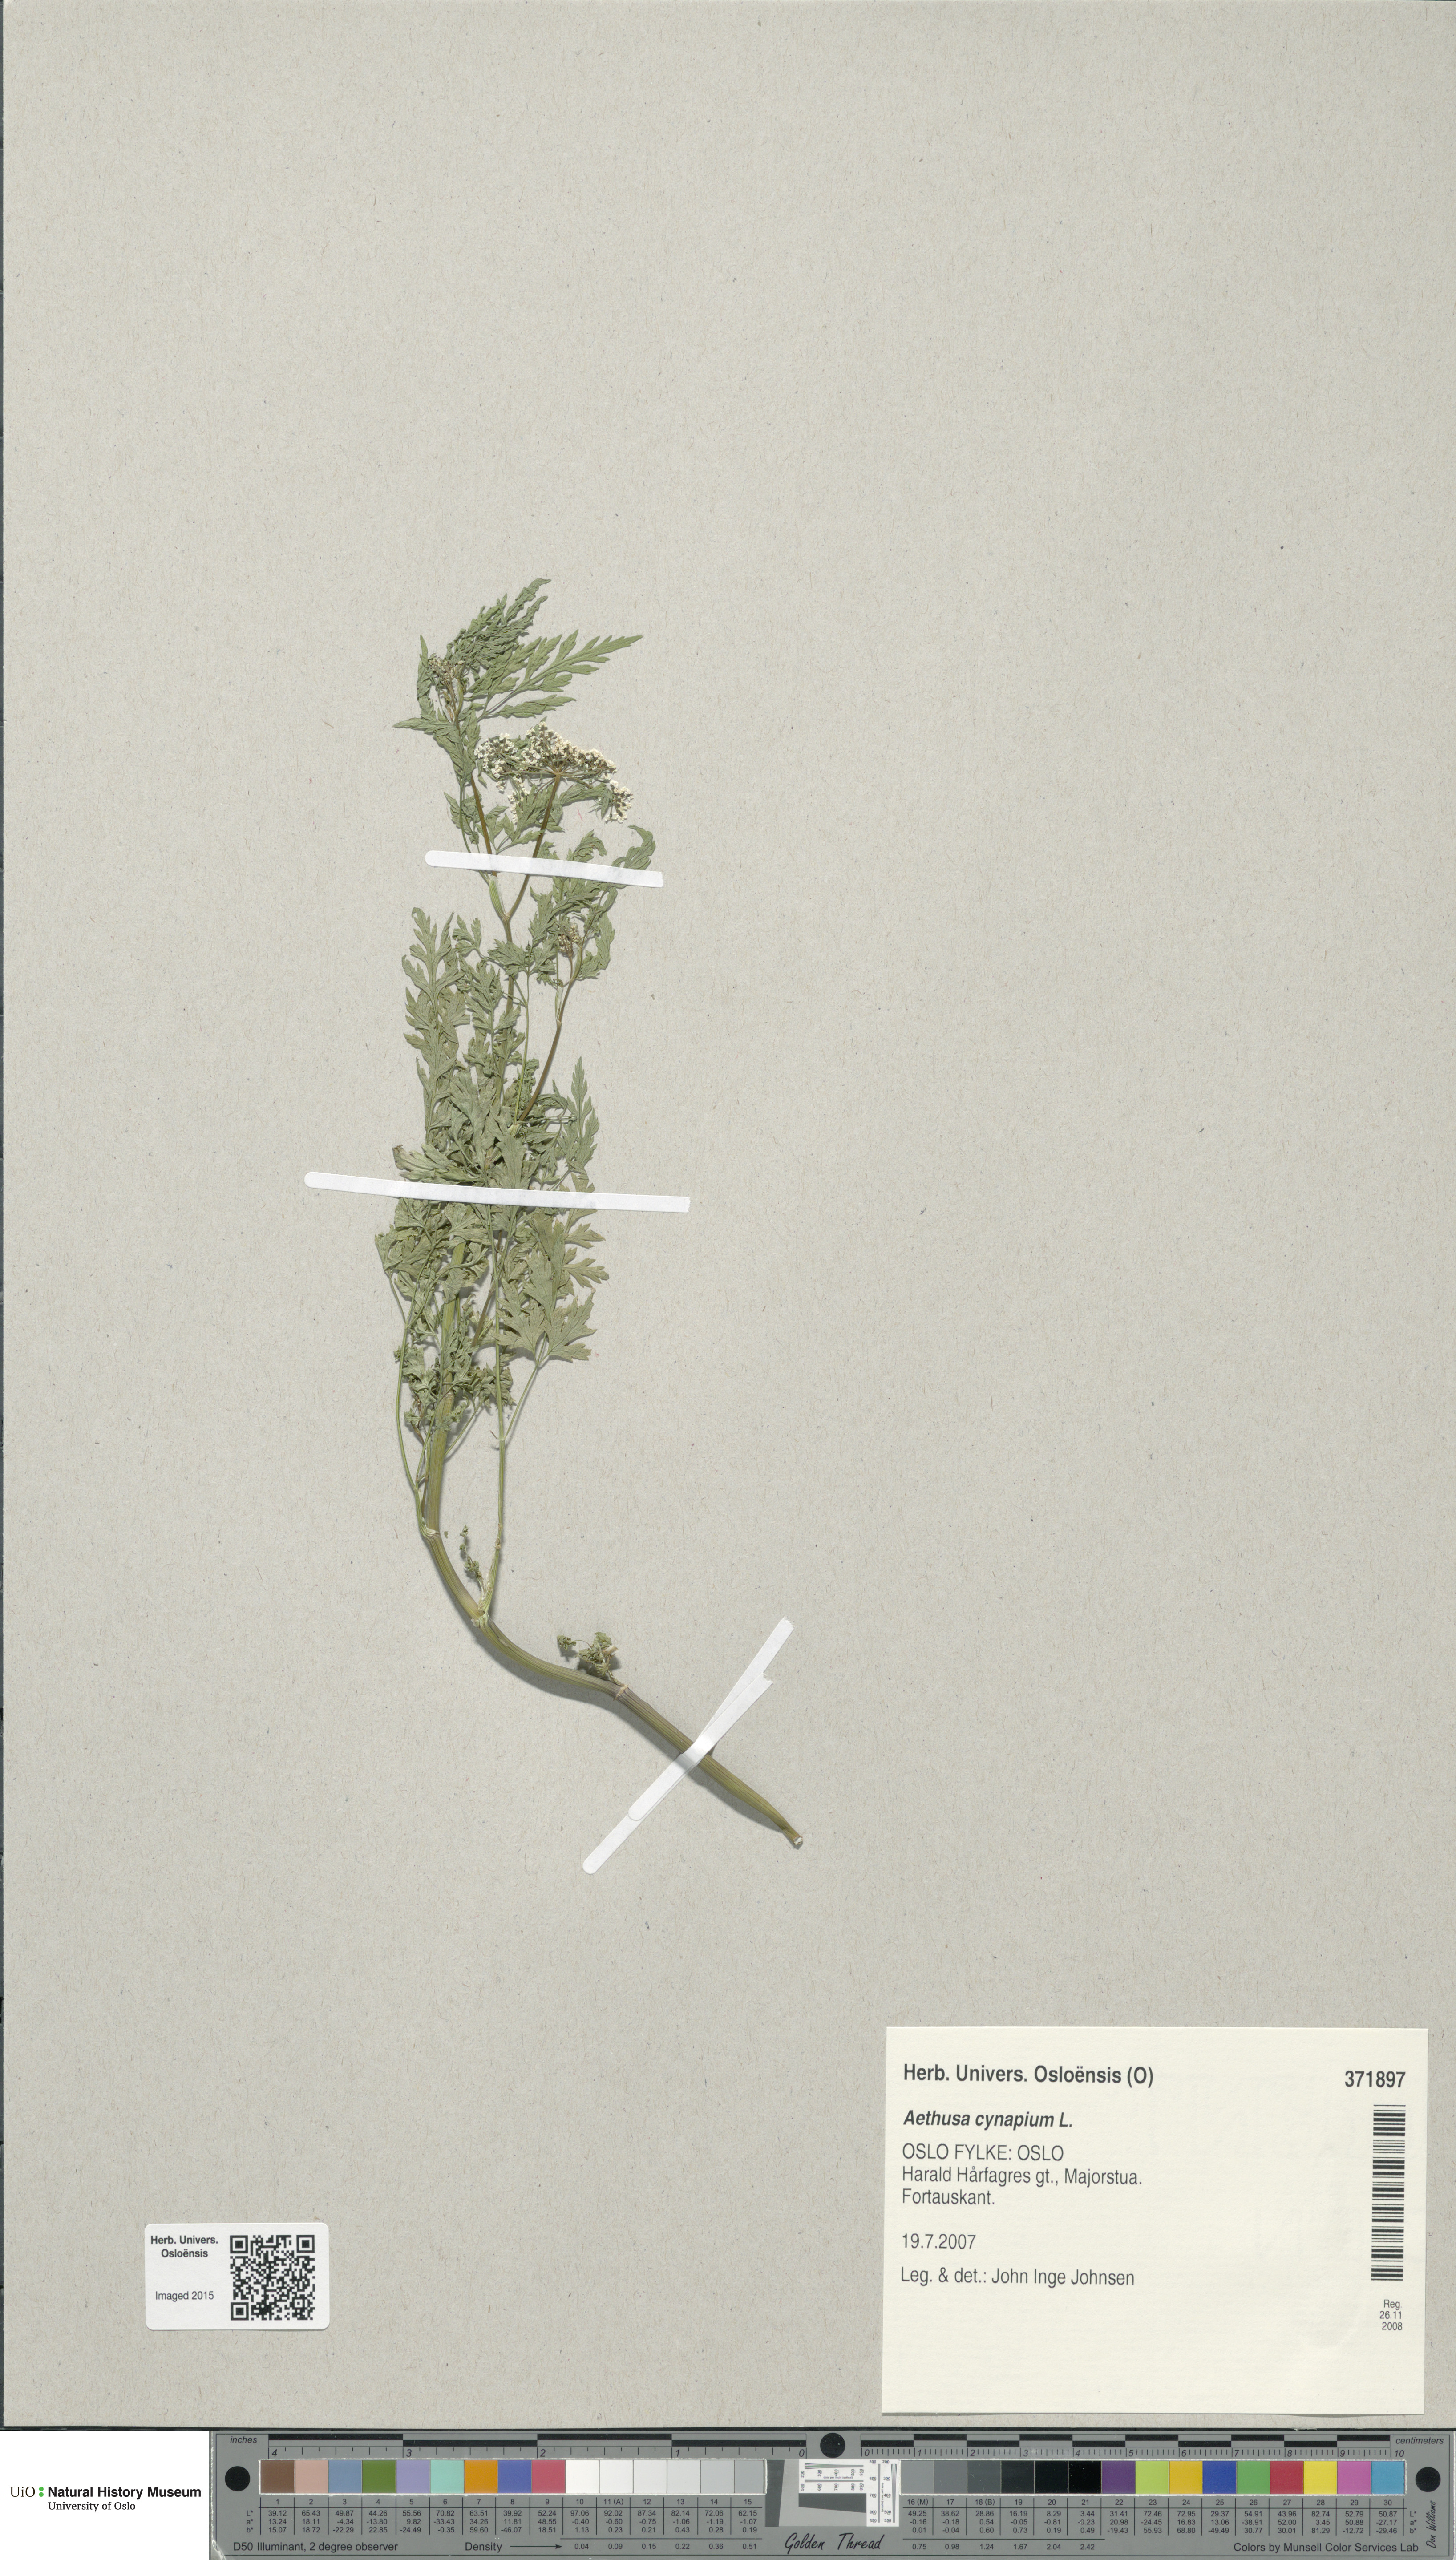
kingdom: Plantae
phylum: Tracheophyta
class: Magnoliopsida
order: Apiales
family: Apiaceae
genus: Aethusa
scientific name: Aethusa cynapium
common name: Fool's parsley
